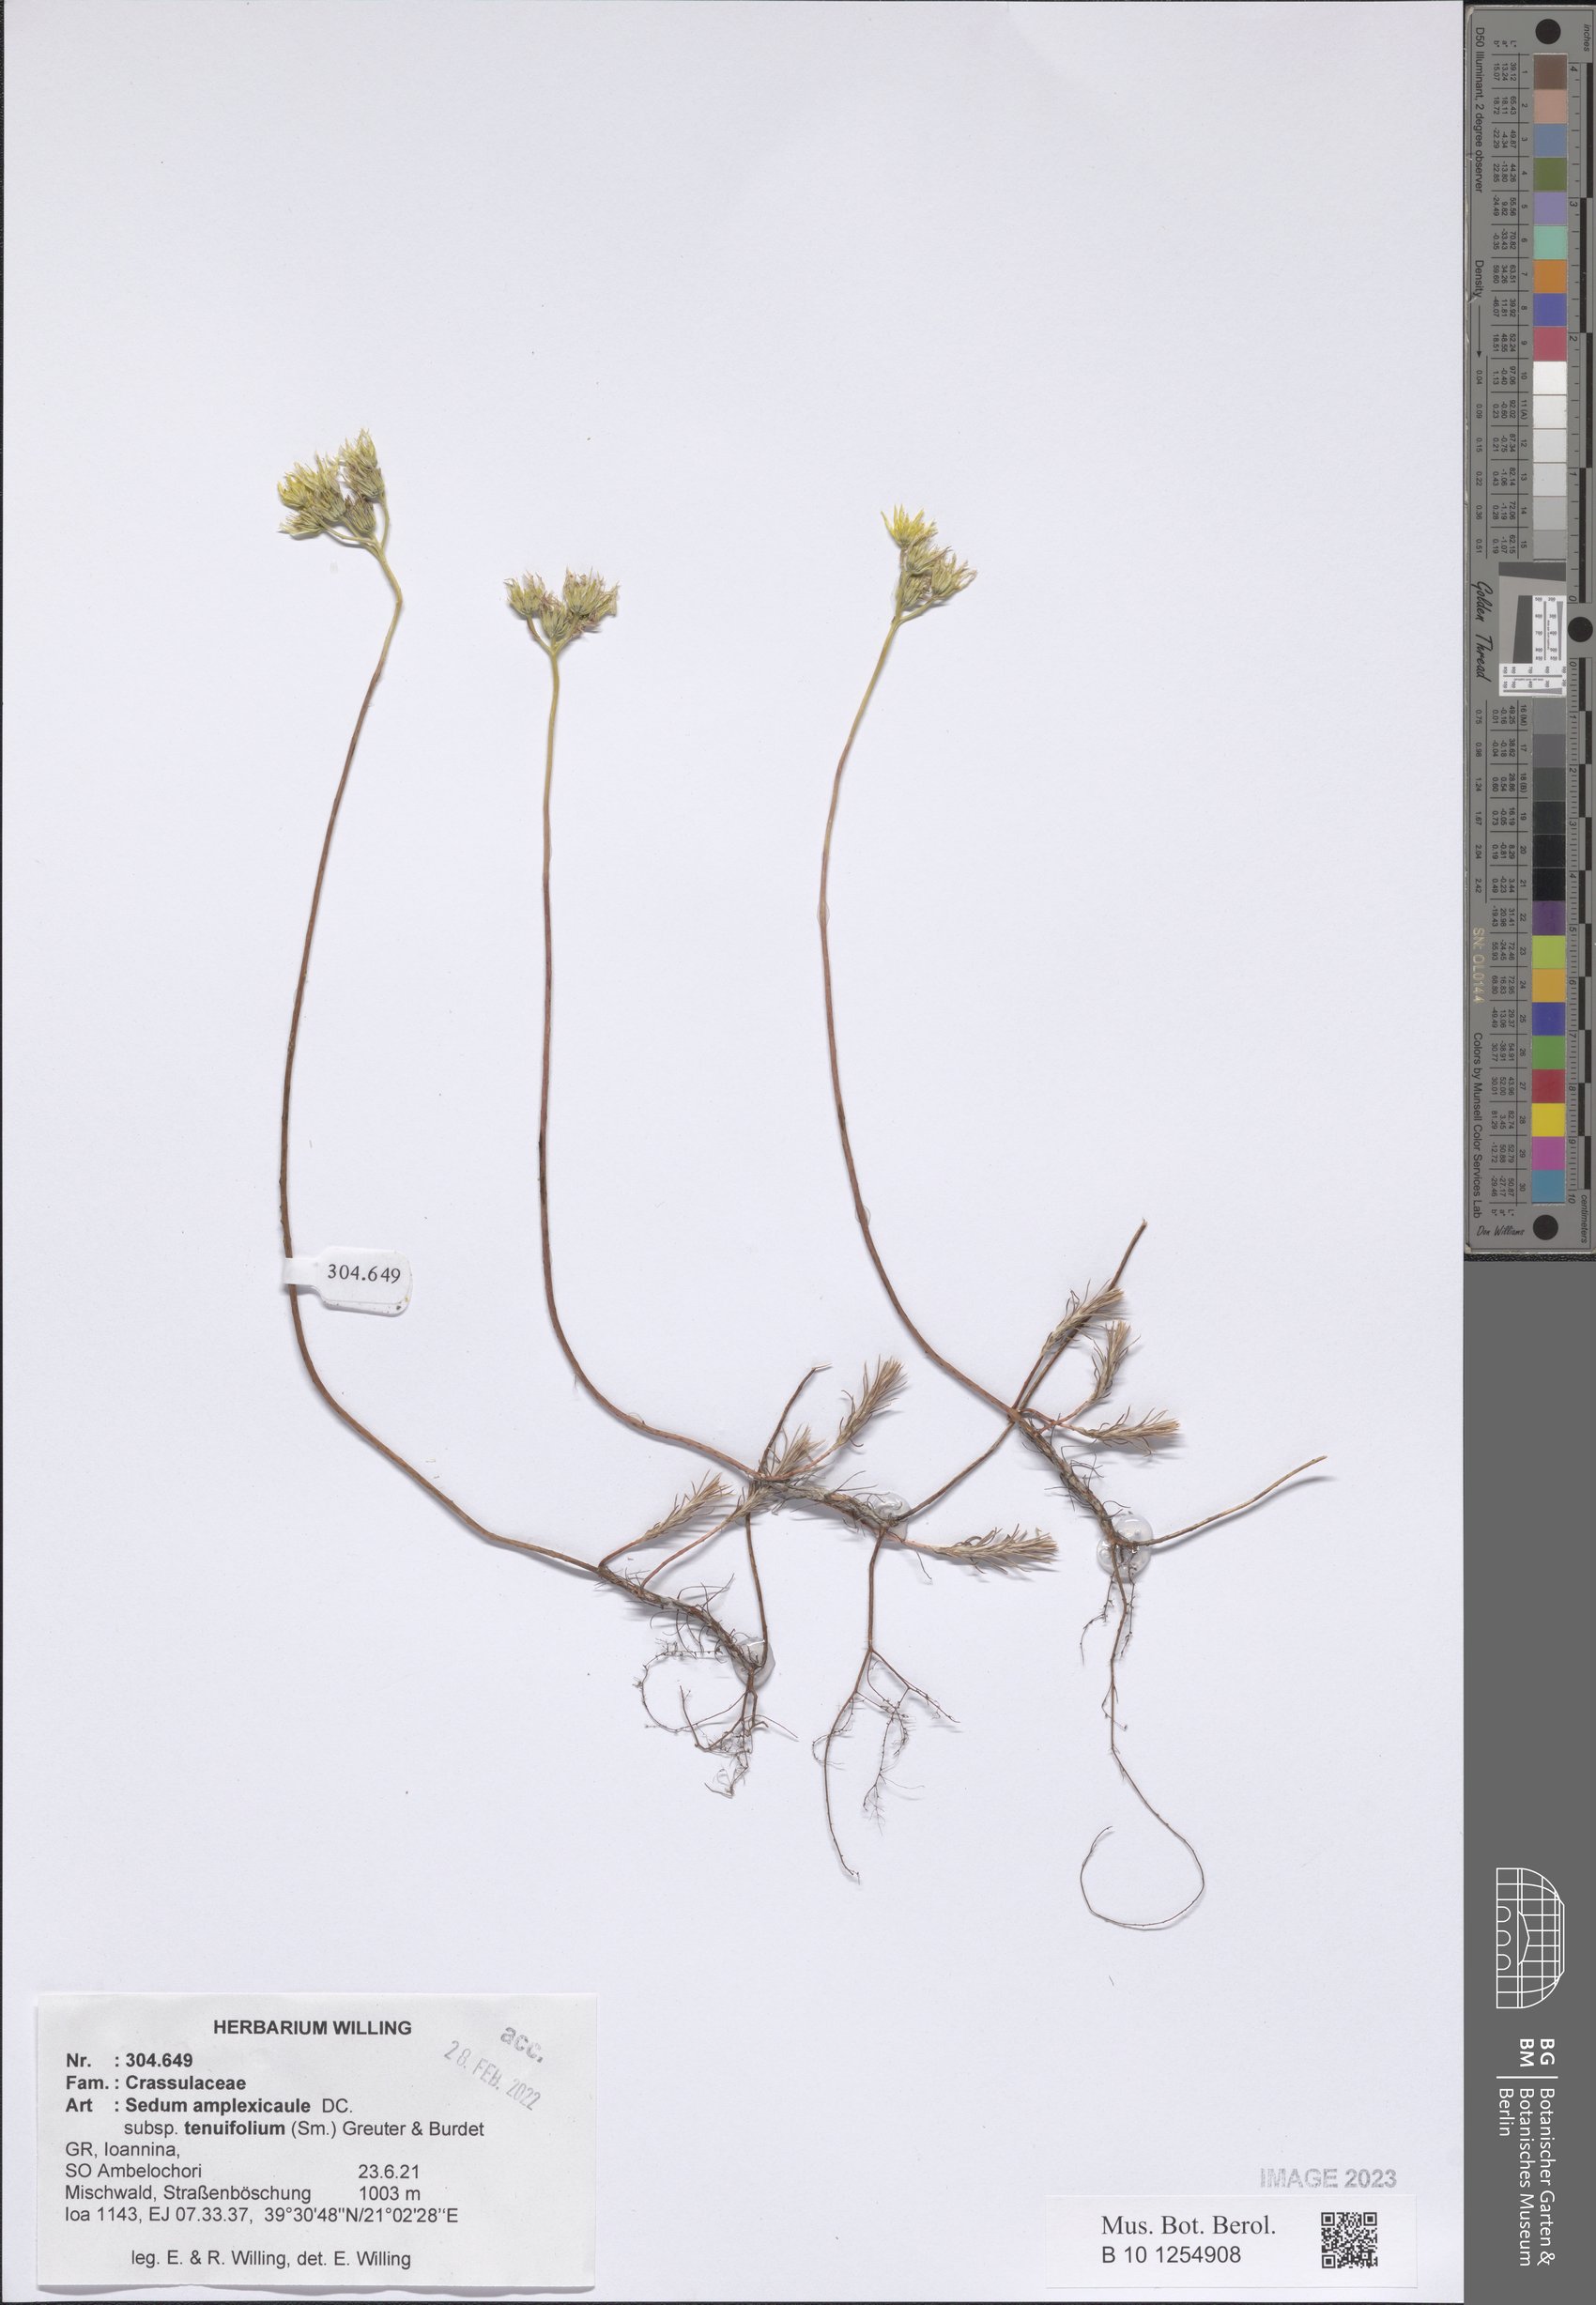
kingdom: Plantae
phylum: Tracheophyta
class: Magnoliopsida
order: Saxifragales
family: Crassulaceae
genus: Petrosedum
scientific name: Petrosedum tenuifolium
